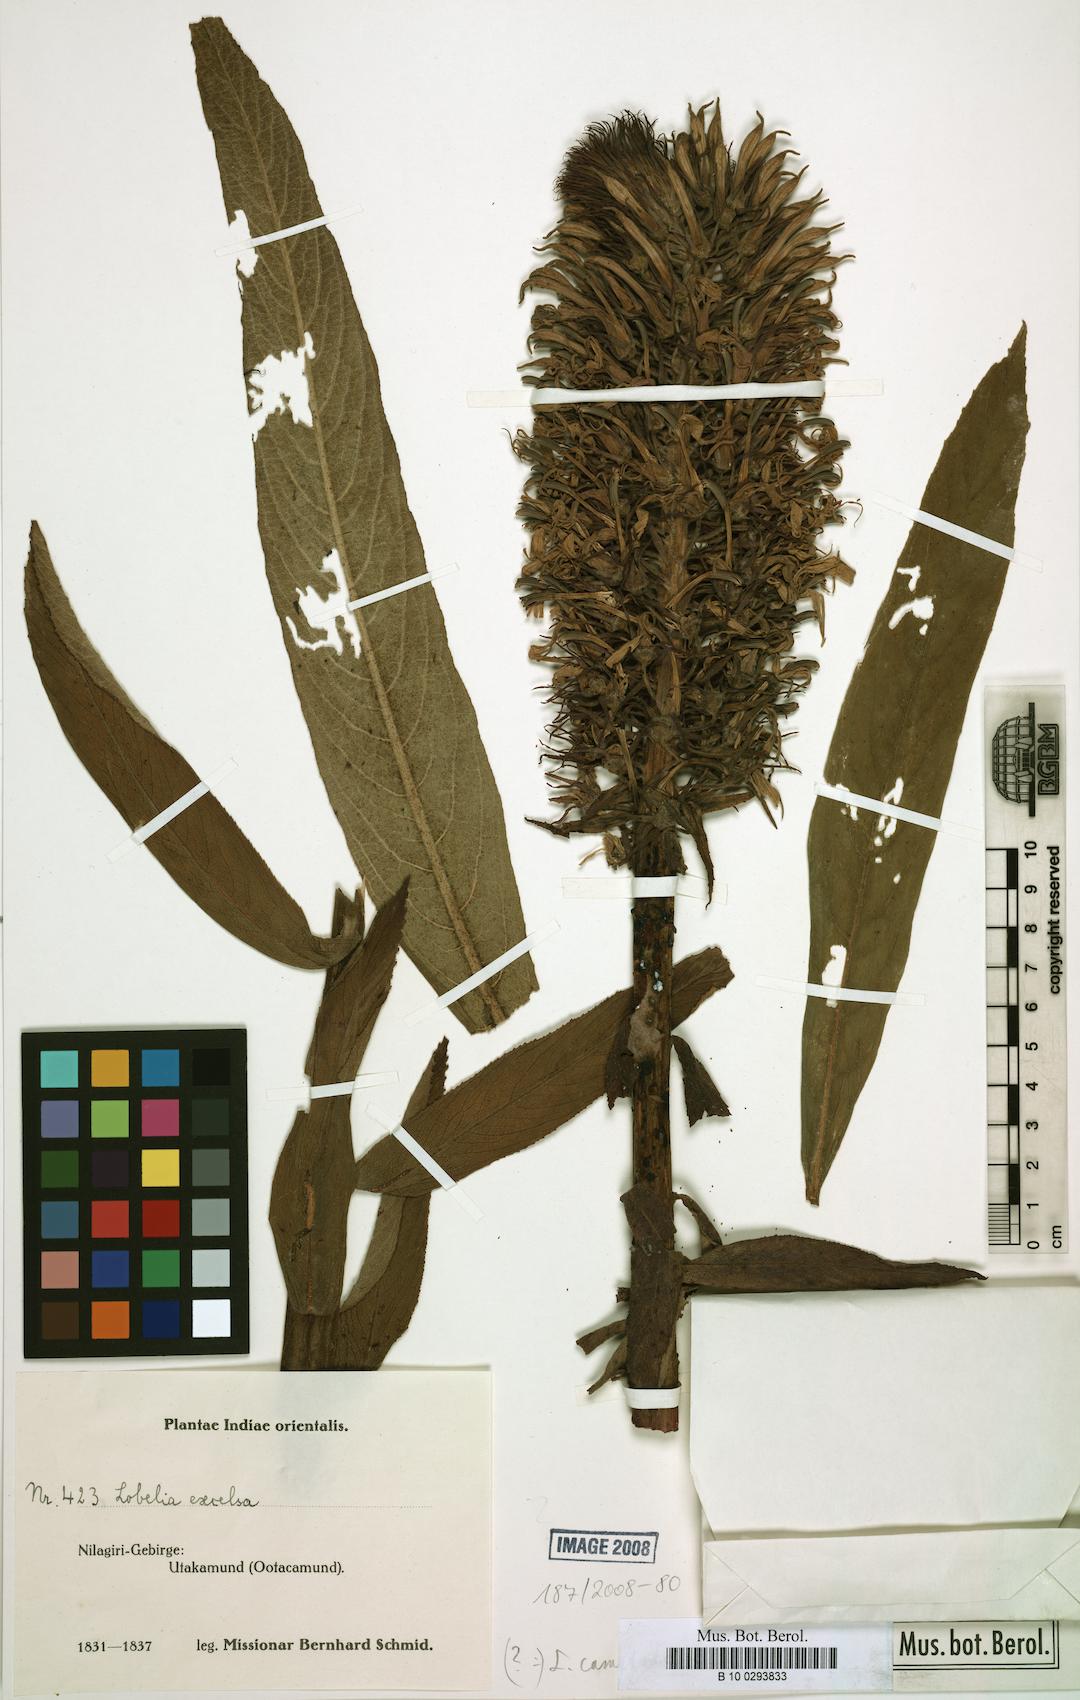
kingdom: Plantae
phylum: Tracheophyta
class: Magnoliopsida
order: Asterales
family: Campanulaceae
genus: Lobelia
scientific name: Lobelia leschenaultiana
